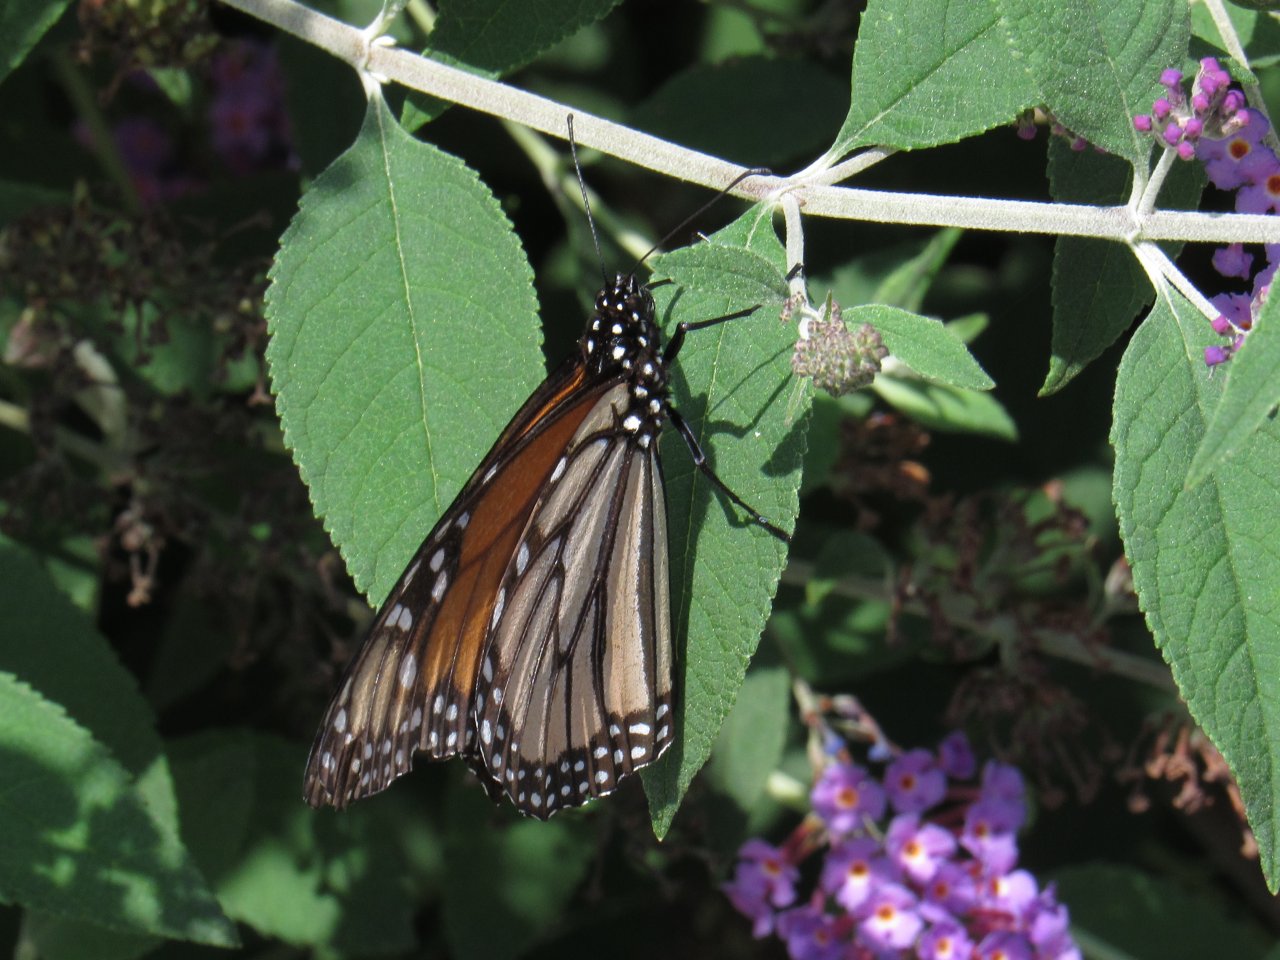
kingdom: Animalia
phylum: Arthropoda
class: Insecta
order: Lepidoptera
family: Nymphalidae
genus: Danaus
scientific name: Danaus plexippus
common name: Monarch
